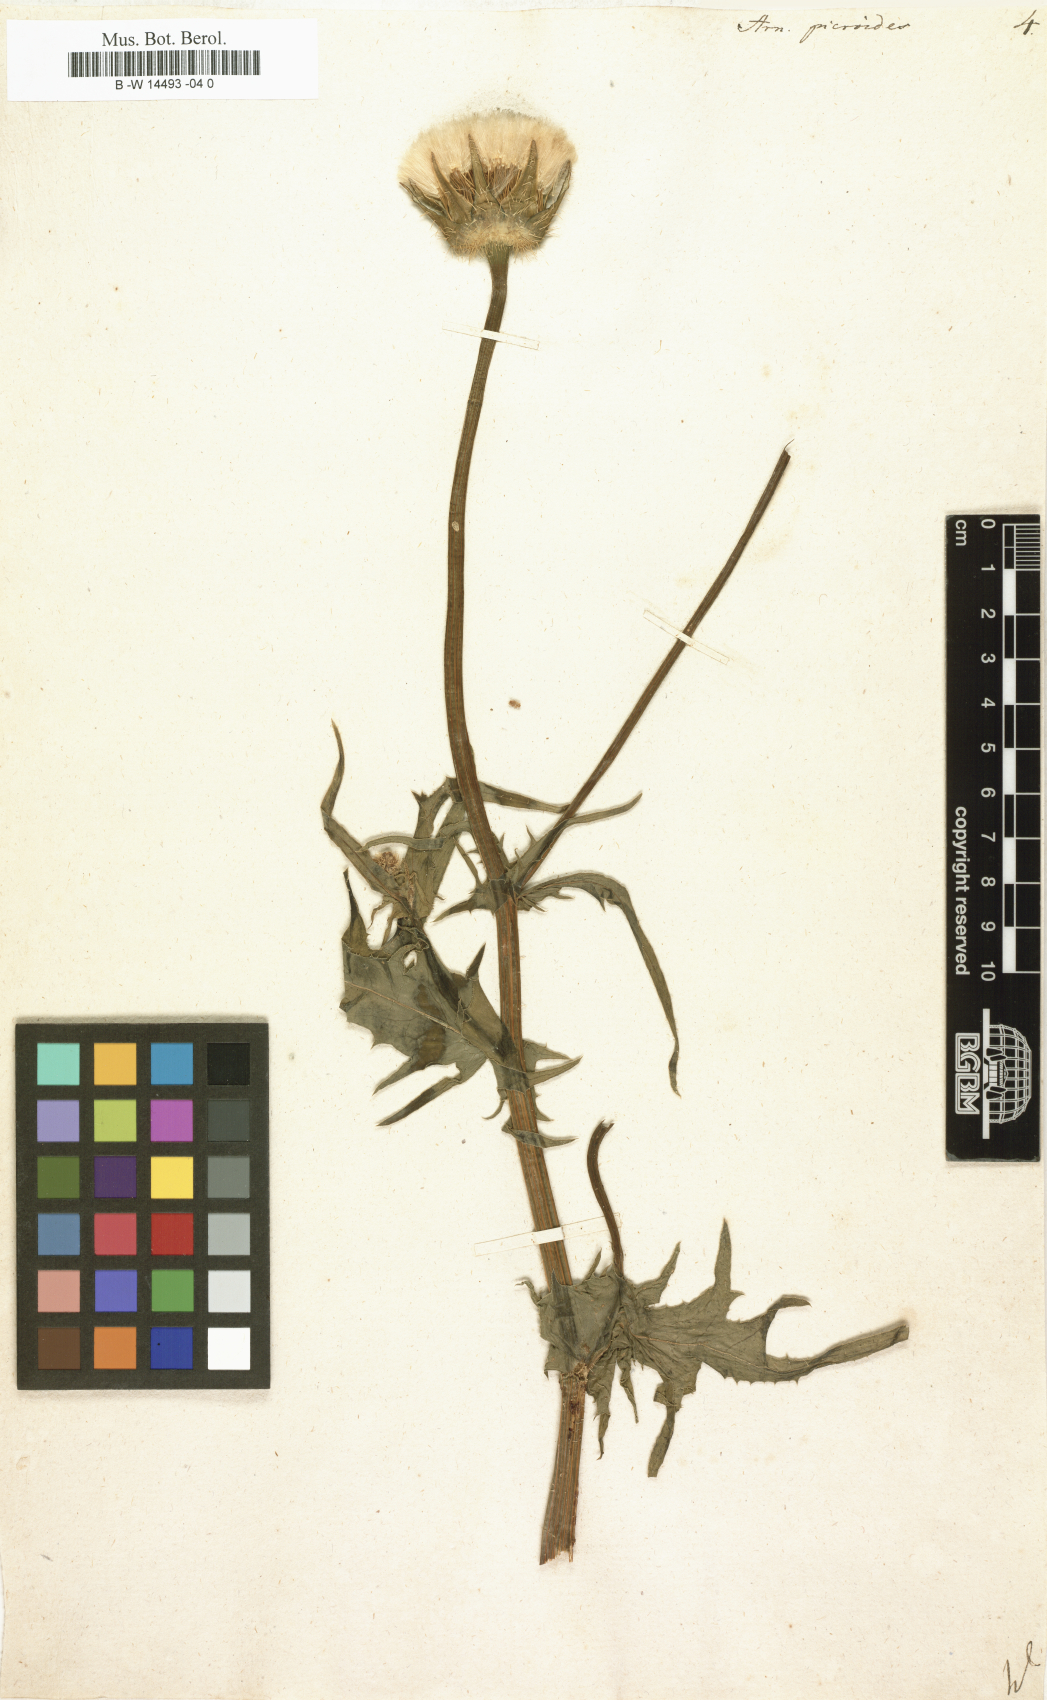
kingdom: Plantae
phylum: Tracheophyta
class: Magnoliopsida
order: Asterales
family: Asteraceae
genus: Urospermum
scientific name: Urospermum picroides
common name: False hawkbit
